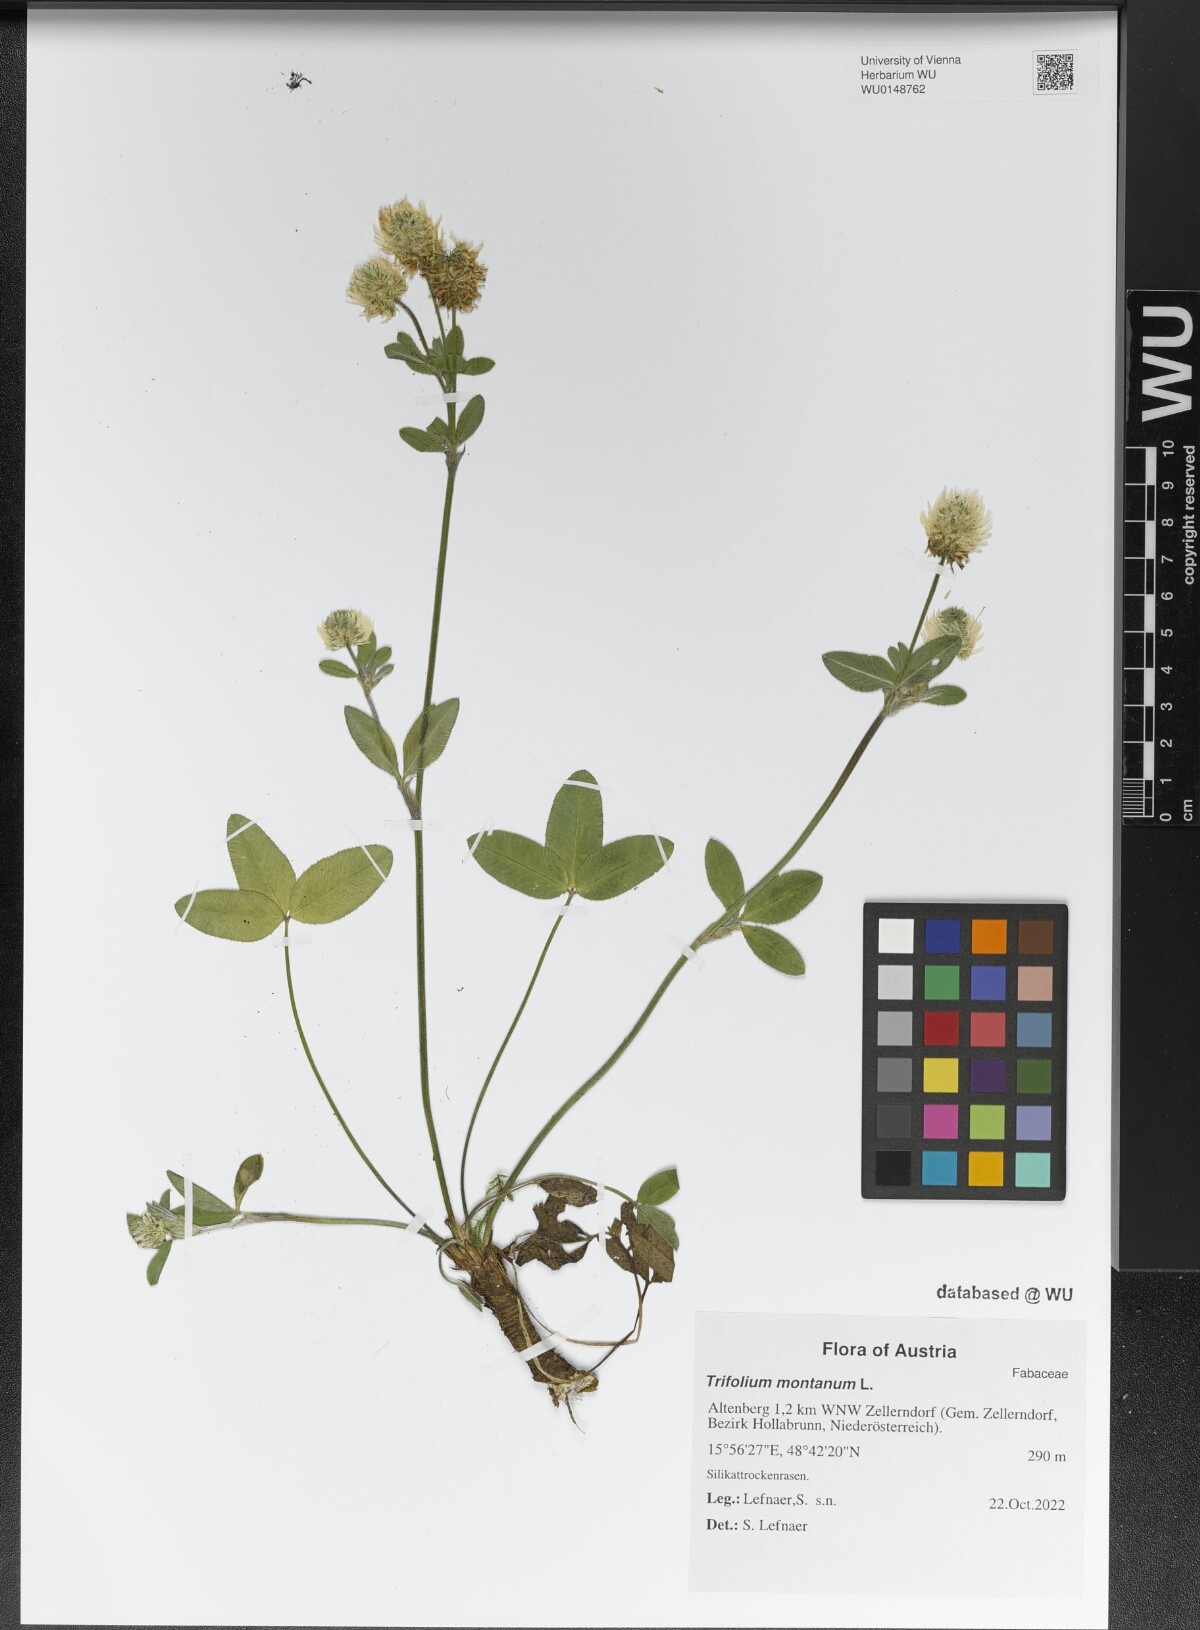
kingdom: Plantae
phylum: Tracheophyta
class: Magnoliopsida
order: Fabales
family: Fabaceae
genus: Trifolium
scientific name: Trifolium montanum
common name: Mountain clover
